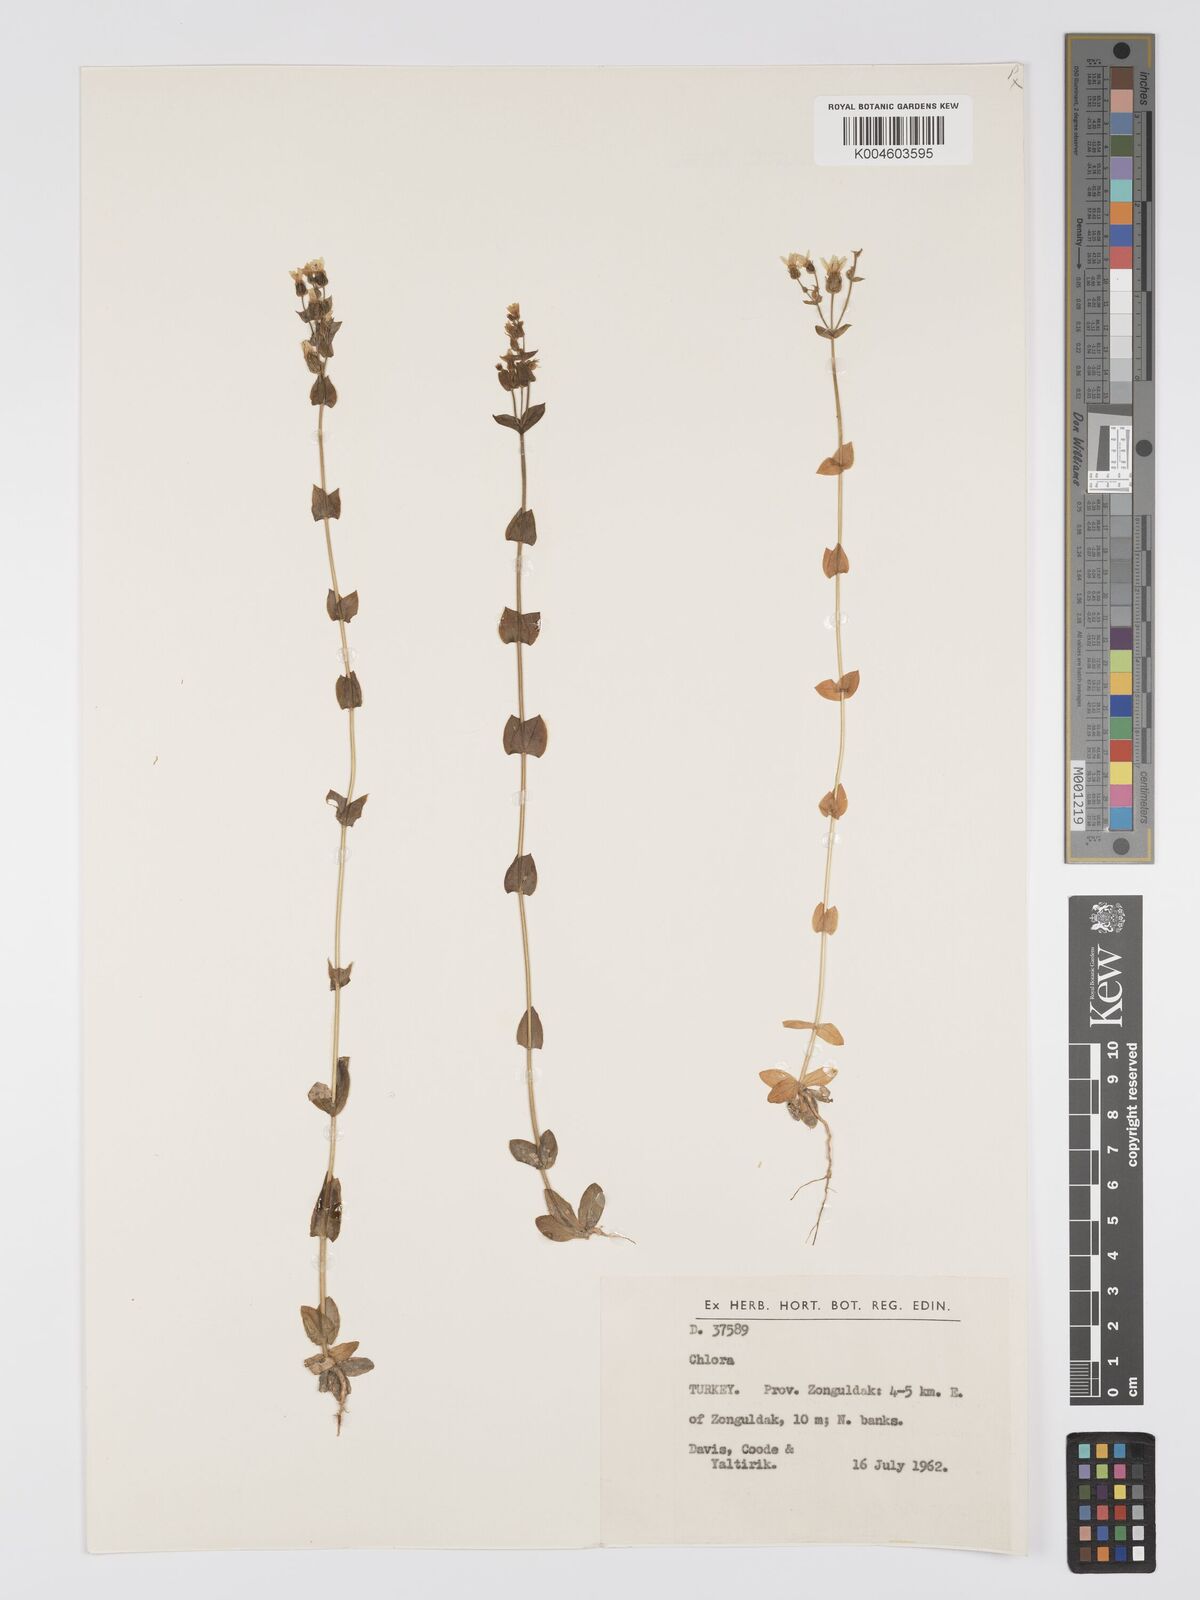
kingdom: Plantae
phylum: Tracheophyta
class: Magnoliopsida
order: Gentianales
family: Gentianaceae
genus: Blackstonia
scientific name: Blackstonia perfoliata
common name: Yellow-wort
